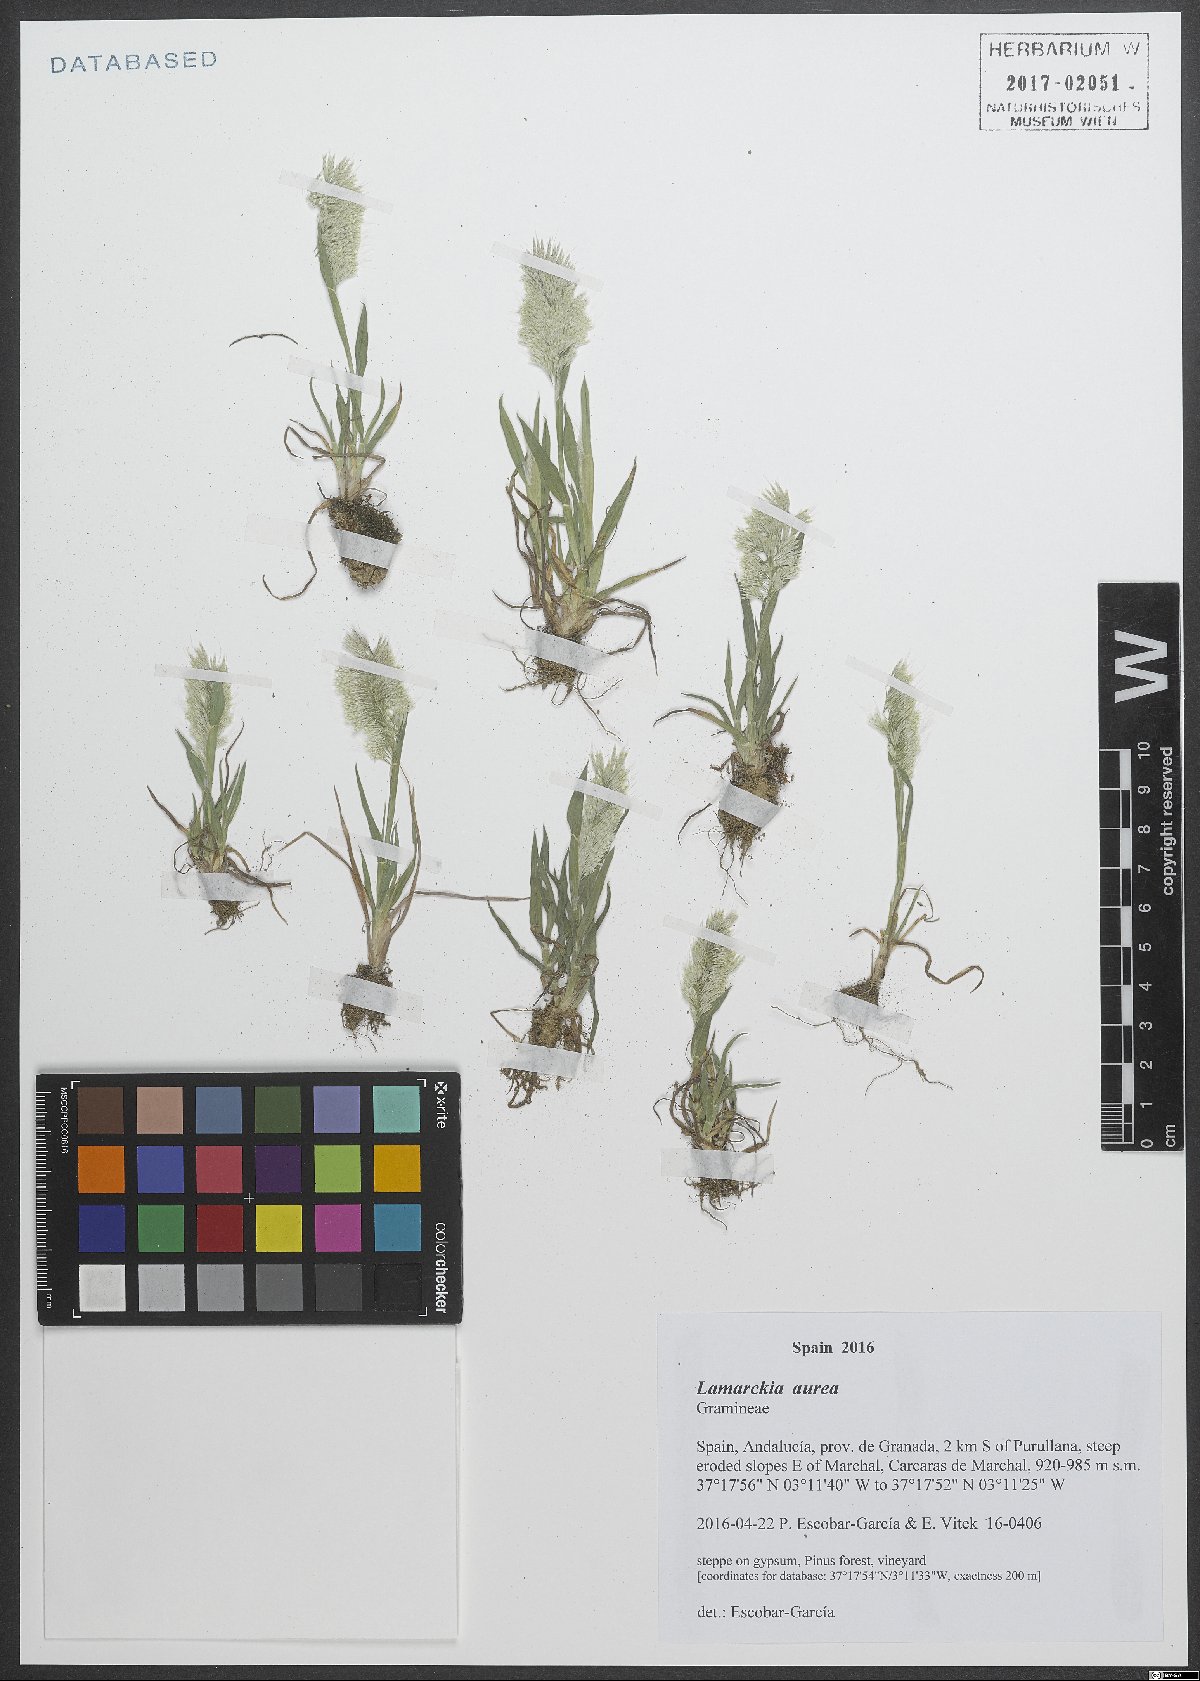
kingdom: Plantae
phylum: Tracheophyta
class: Liliopsida
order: Poales
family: Poaceae
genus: Lamarckia
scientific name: Lamarckia aurea
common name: Golden dog's-tail
